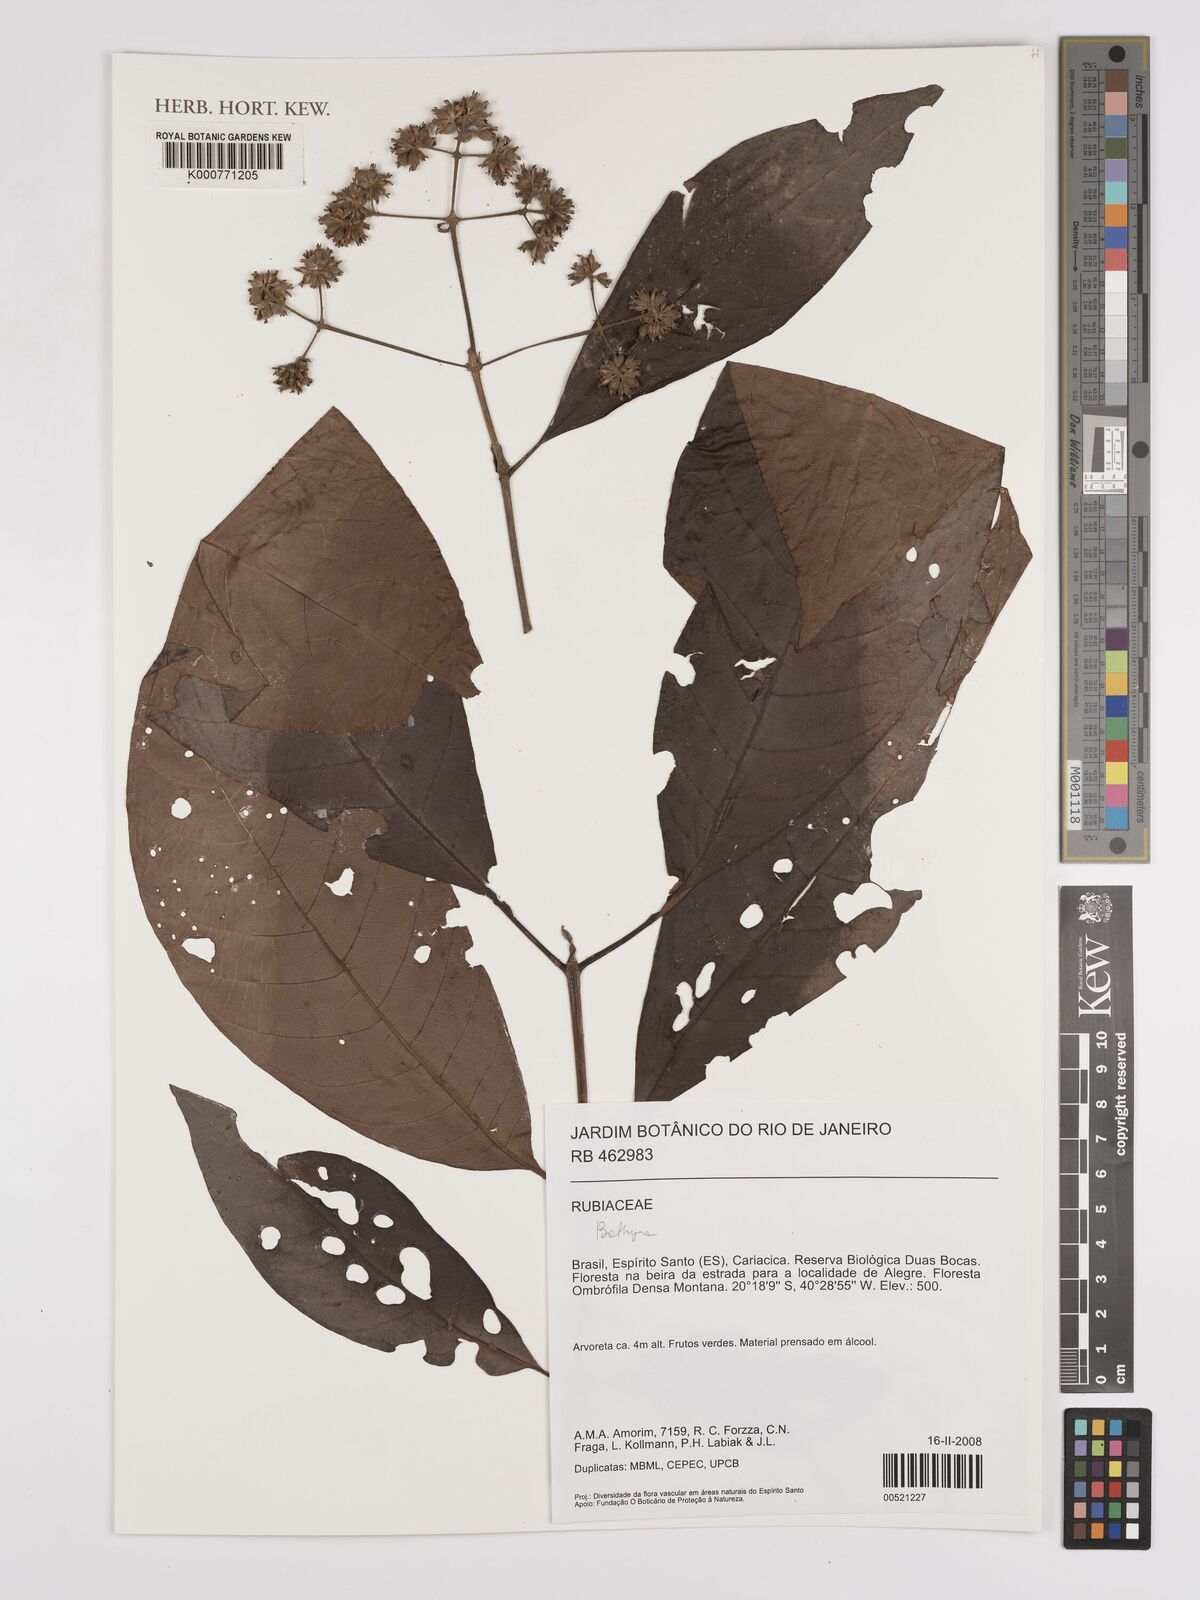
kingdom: Plantae
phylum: Tracheophyta
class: Magnoliopsida
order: Gentianales
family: Rubiaceae
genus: Bathysa
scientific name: Bathysa
